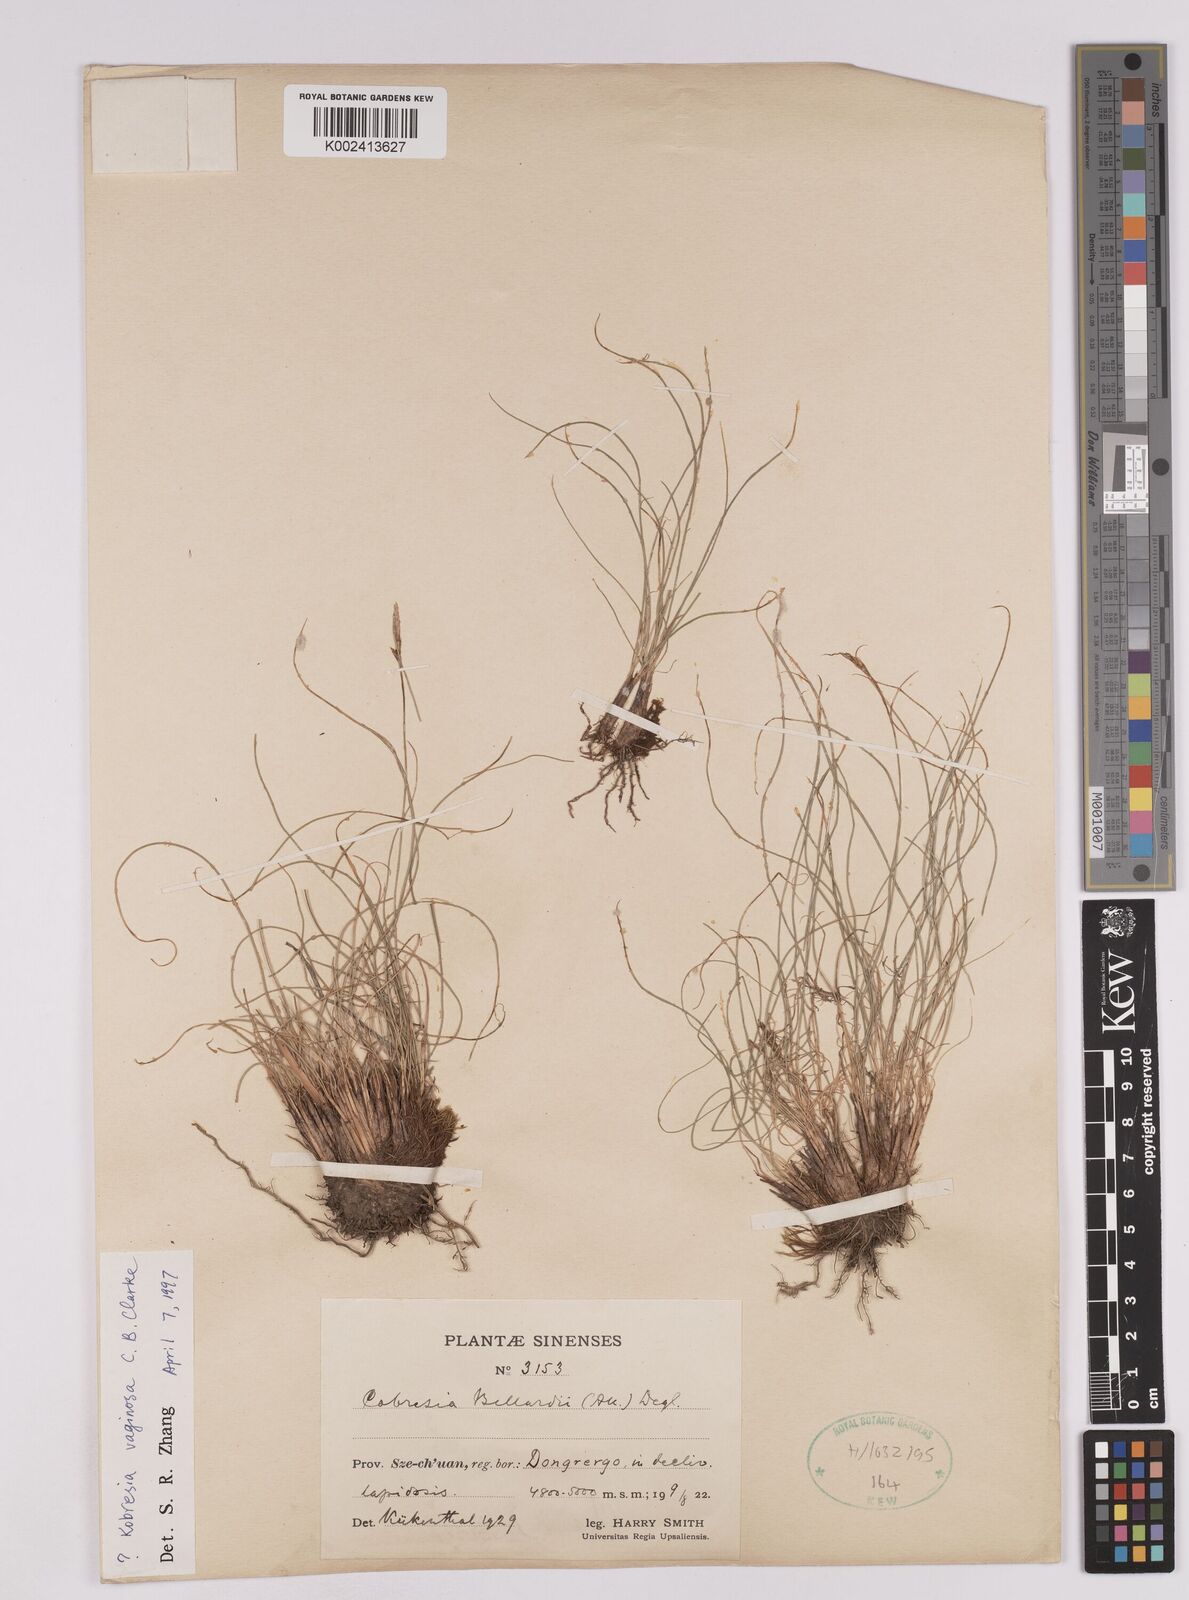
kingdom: Plantae
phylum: Tracheophyta
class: Liliopsida
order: Poales
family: Cyperaceae
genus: Carex
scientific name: Carex vaginosa
